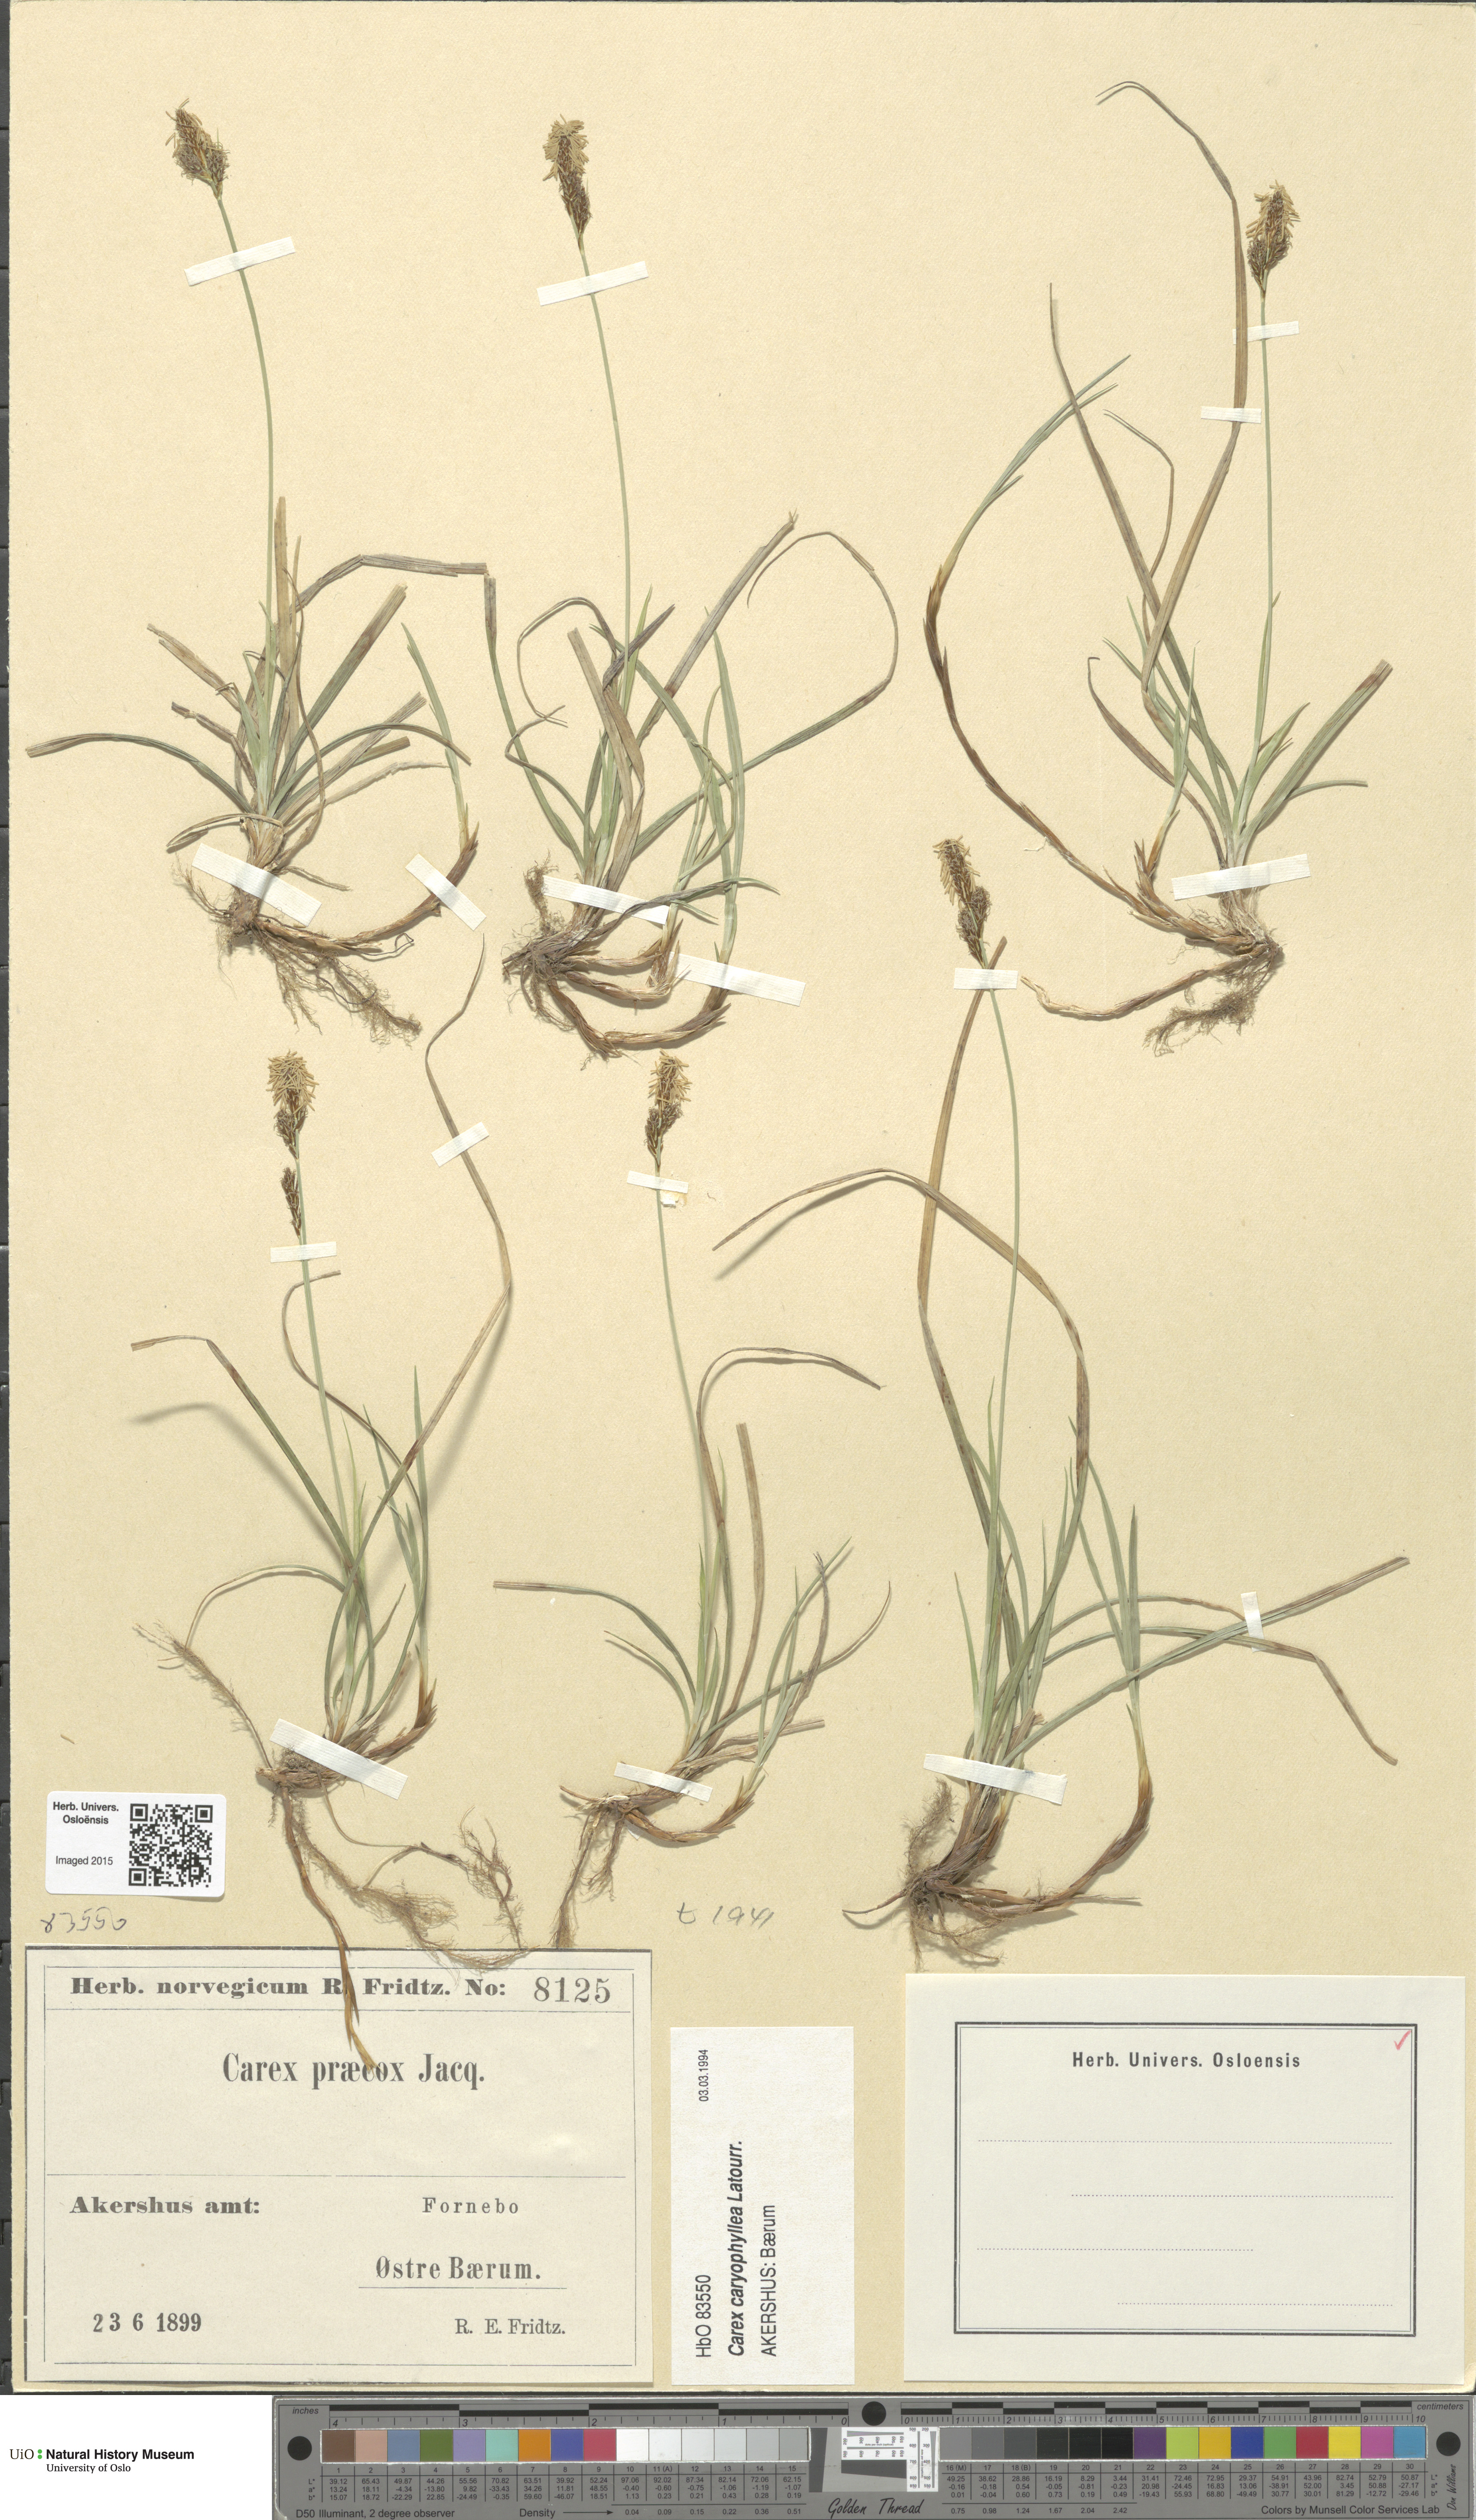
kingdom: Plantae
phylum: Tracheophyta
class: Liliopsida
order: Poales
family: Cyperaceae
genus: Carex
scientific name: Carex caryophyllea
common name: Spring sedge
